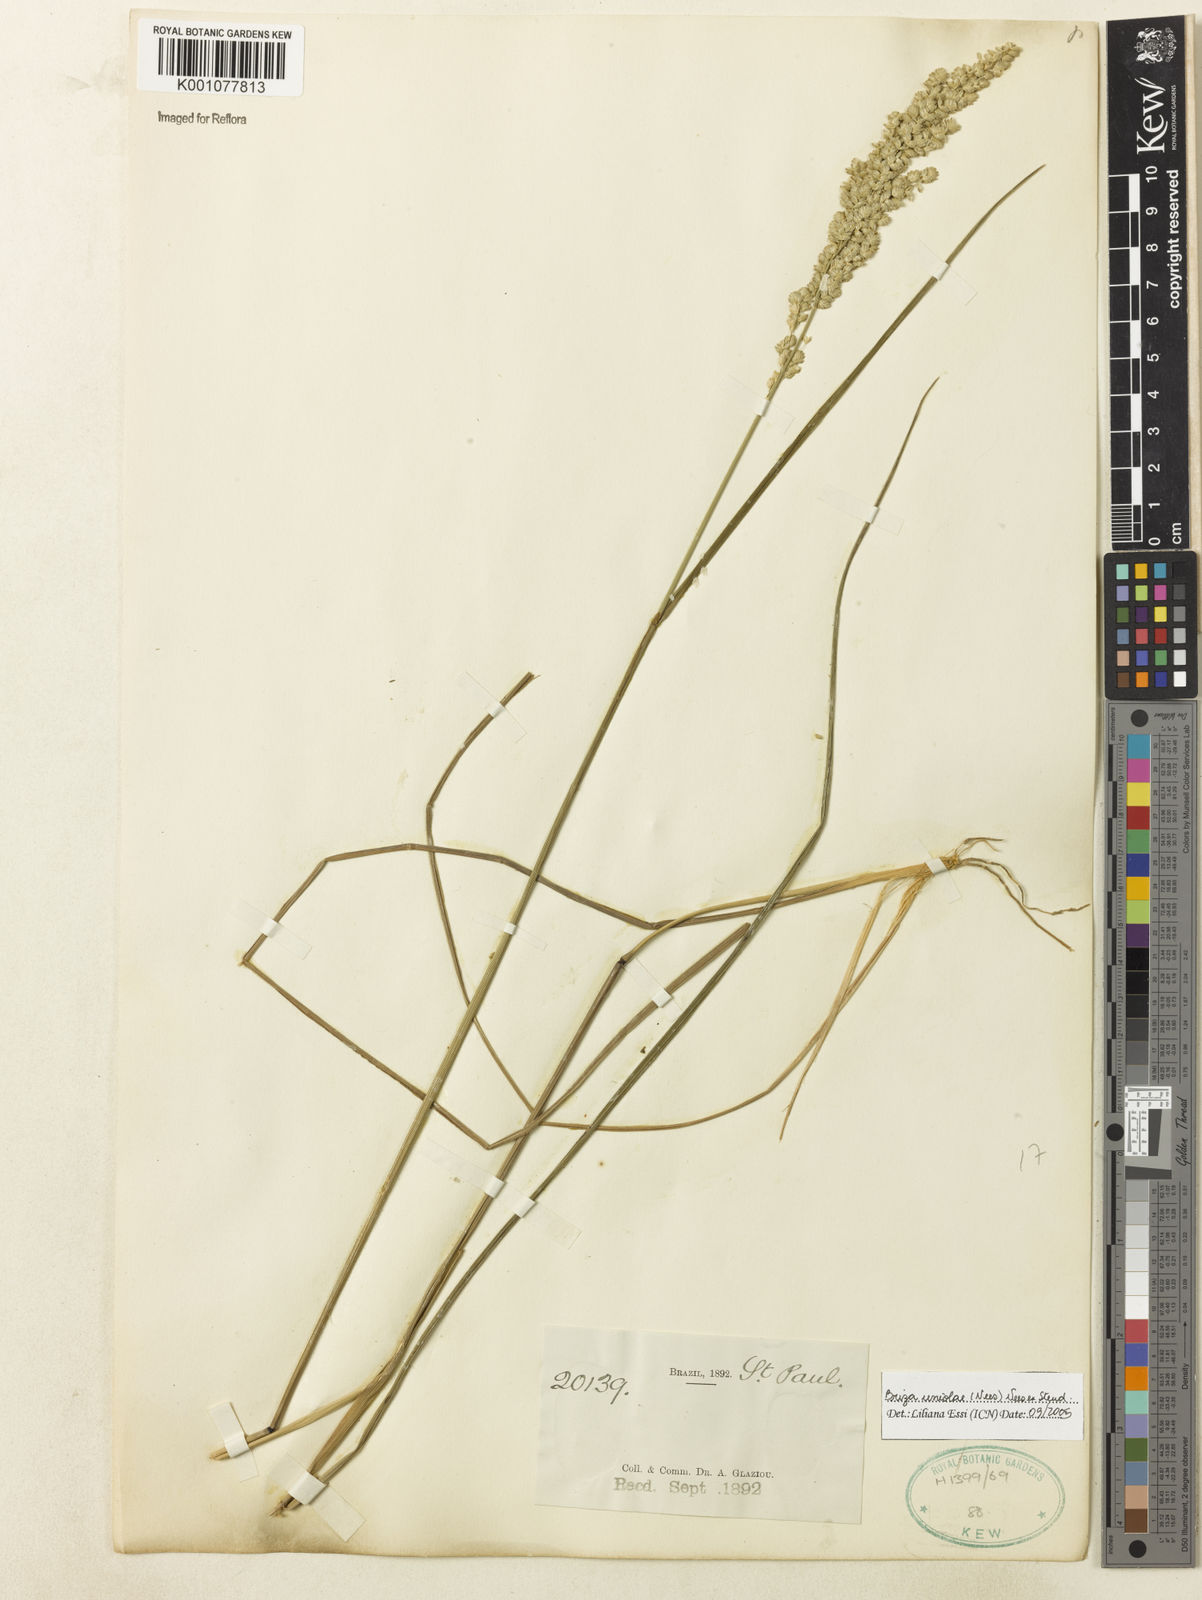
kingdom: Plantae
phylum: Tracheophyta
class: Liliopsida
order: Poales
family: Poaceae
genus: Poidium
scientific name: Poidium uniolae
